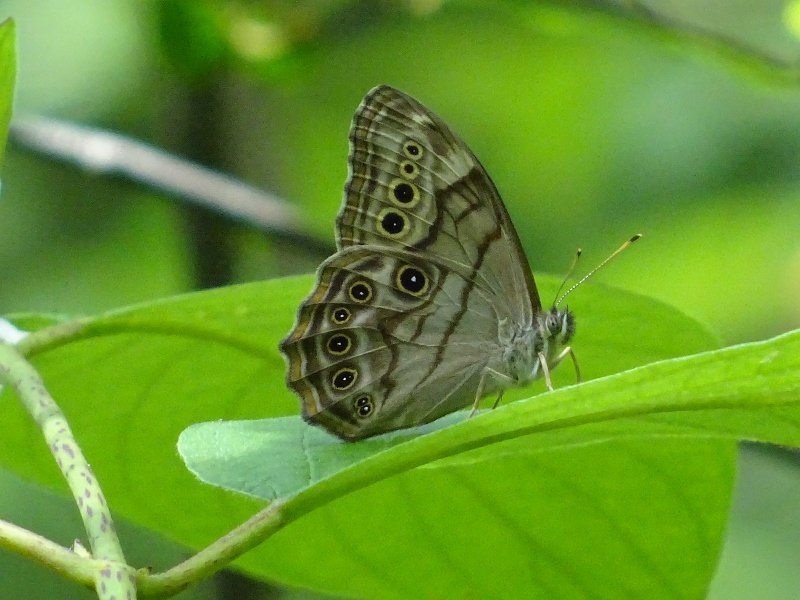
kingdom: Animalia
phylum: Arthropoda
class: Insecta
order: Lepidoptera
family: Nymphalidae
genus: Lethe
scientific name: Lethe anthedon
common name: Northern Pearly-Eye
